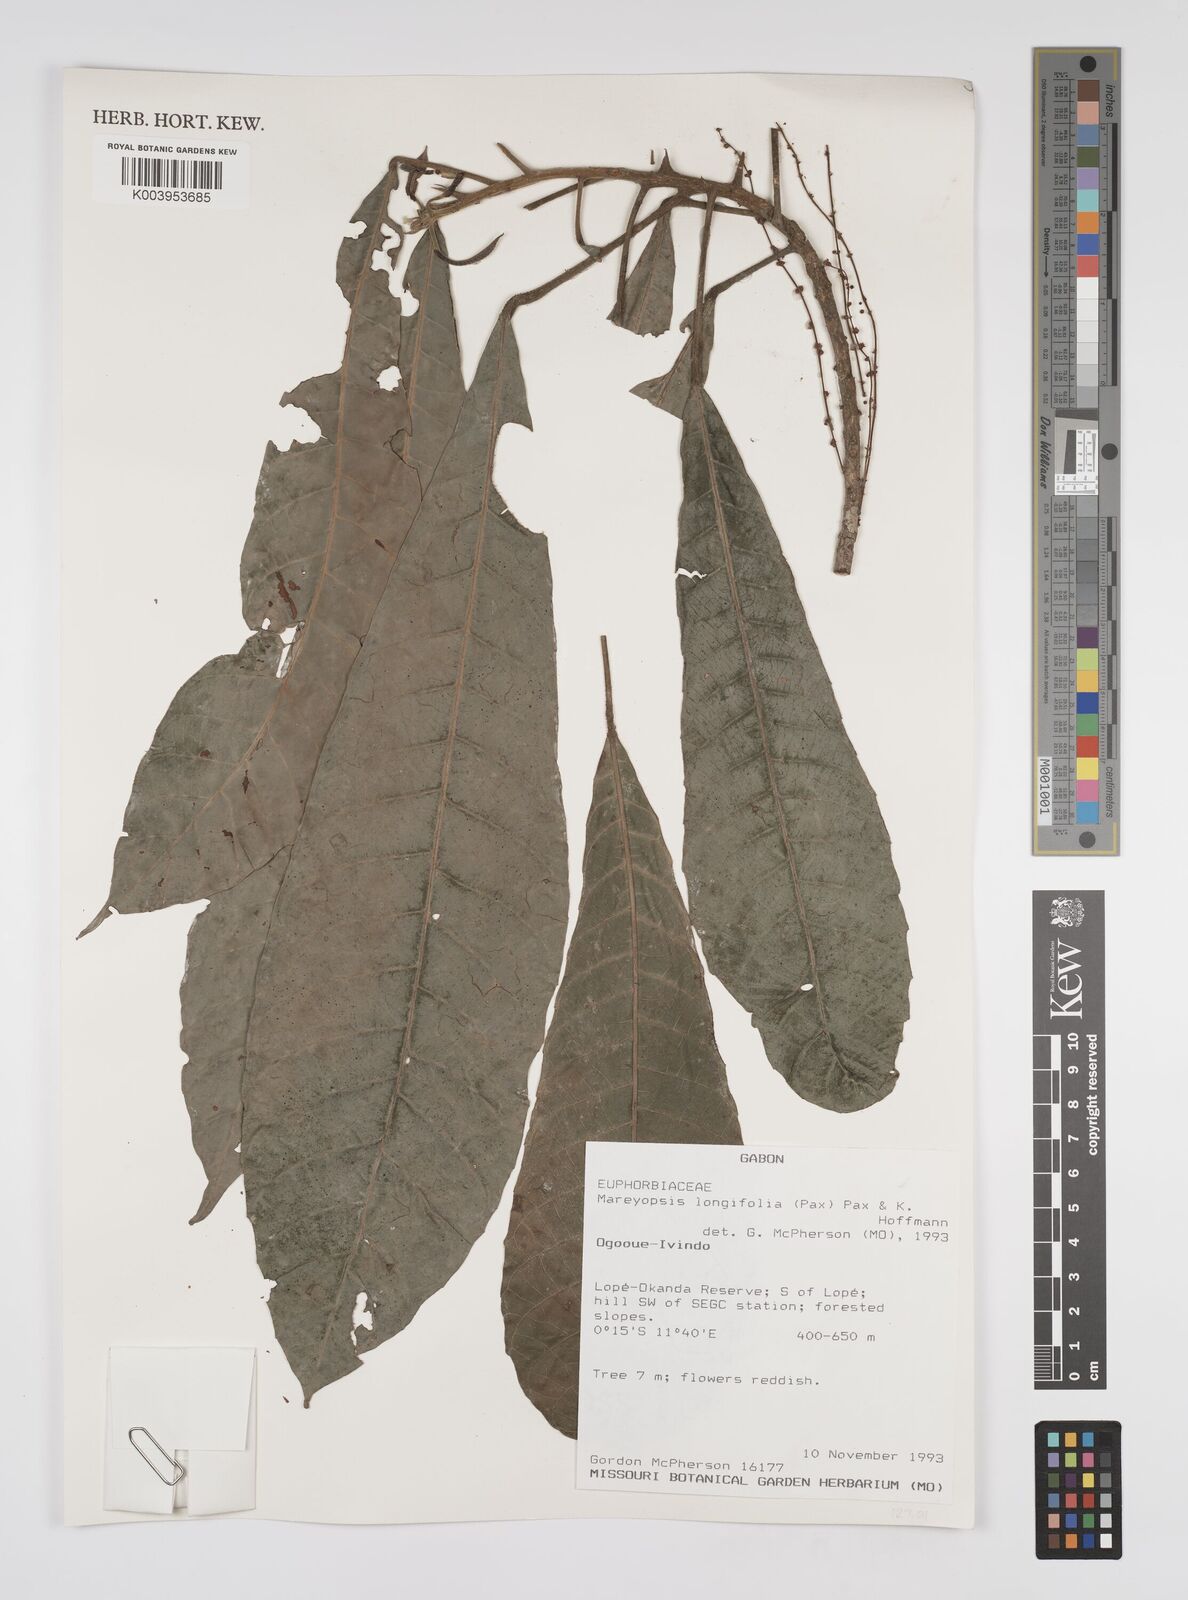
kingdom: Plantae
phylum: Tracheophyta
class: Magnoliopsida
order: Malpighiales
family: Euphorbiaceae
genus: Mareyopsis
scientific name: Mareyopsis longifolia
